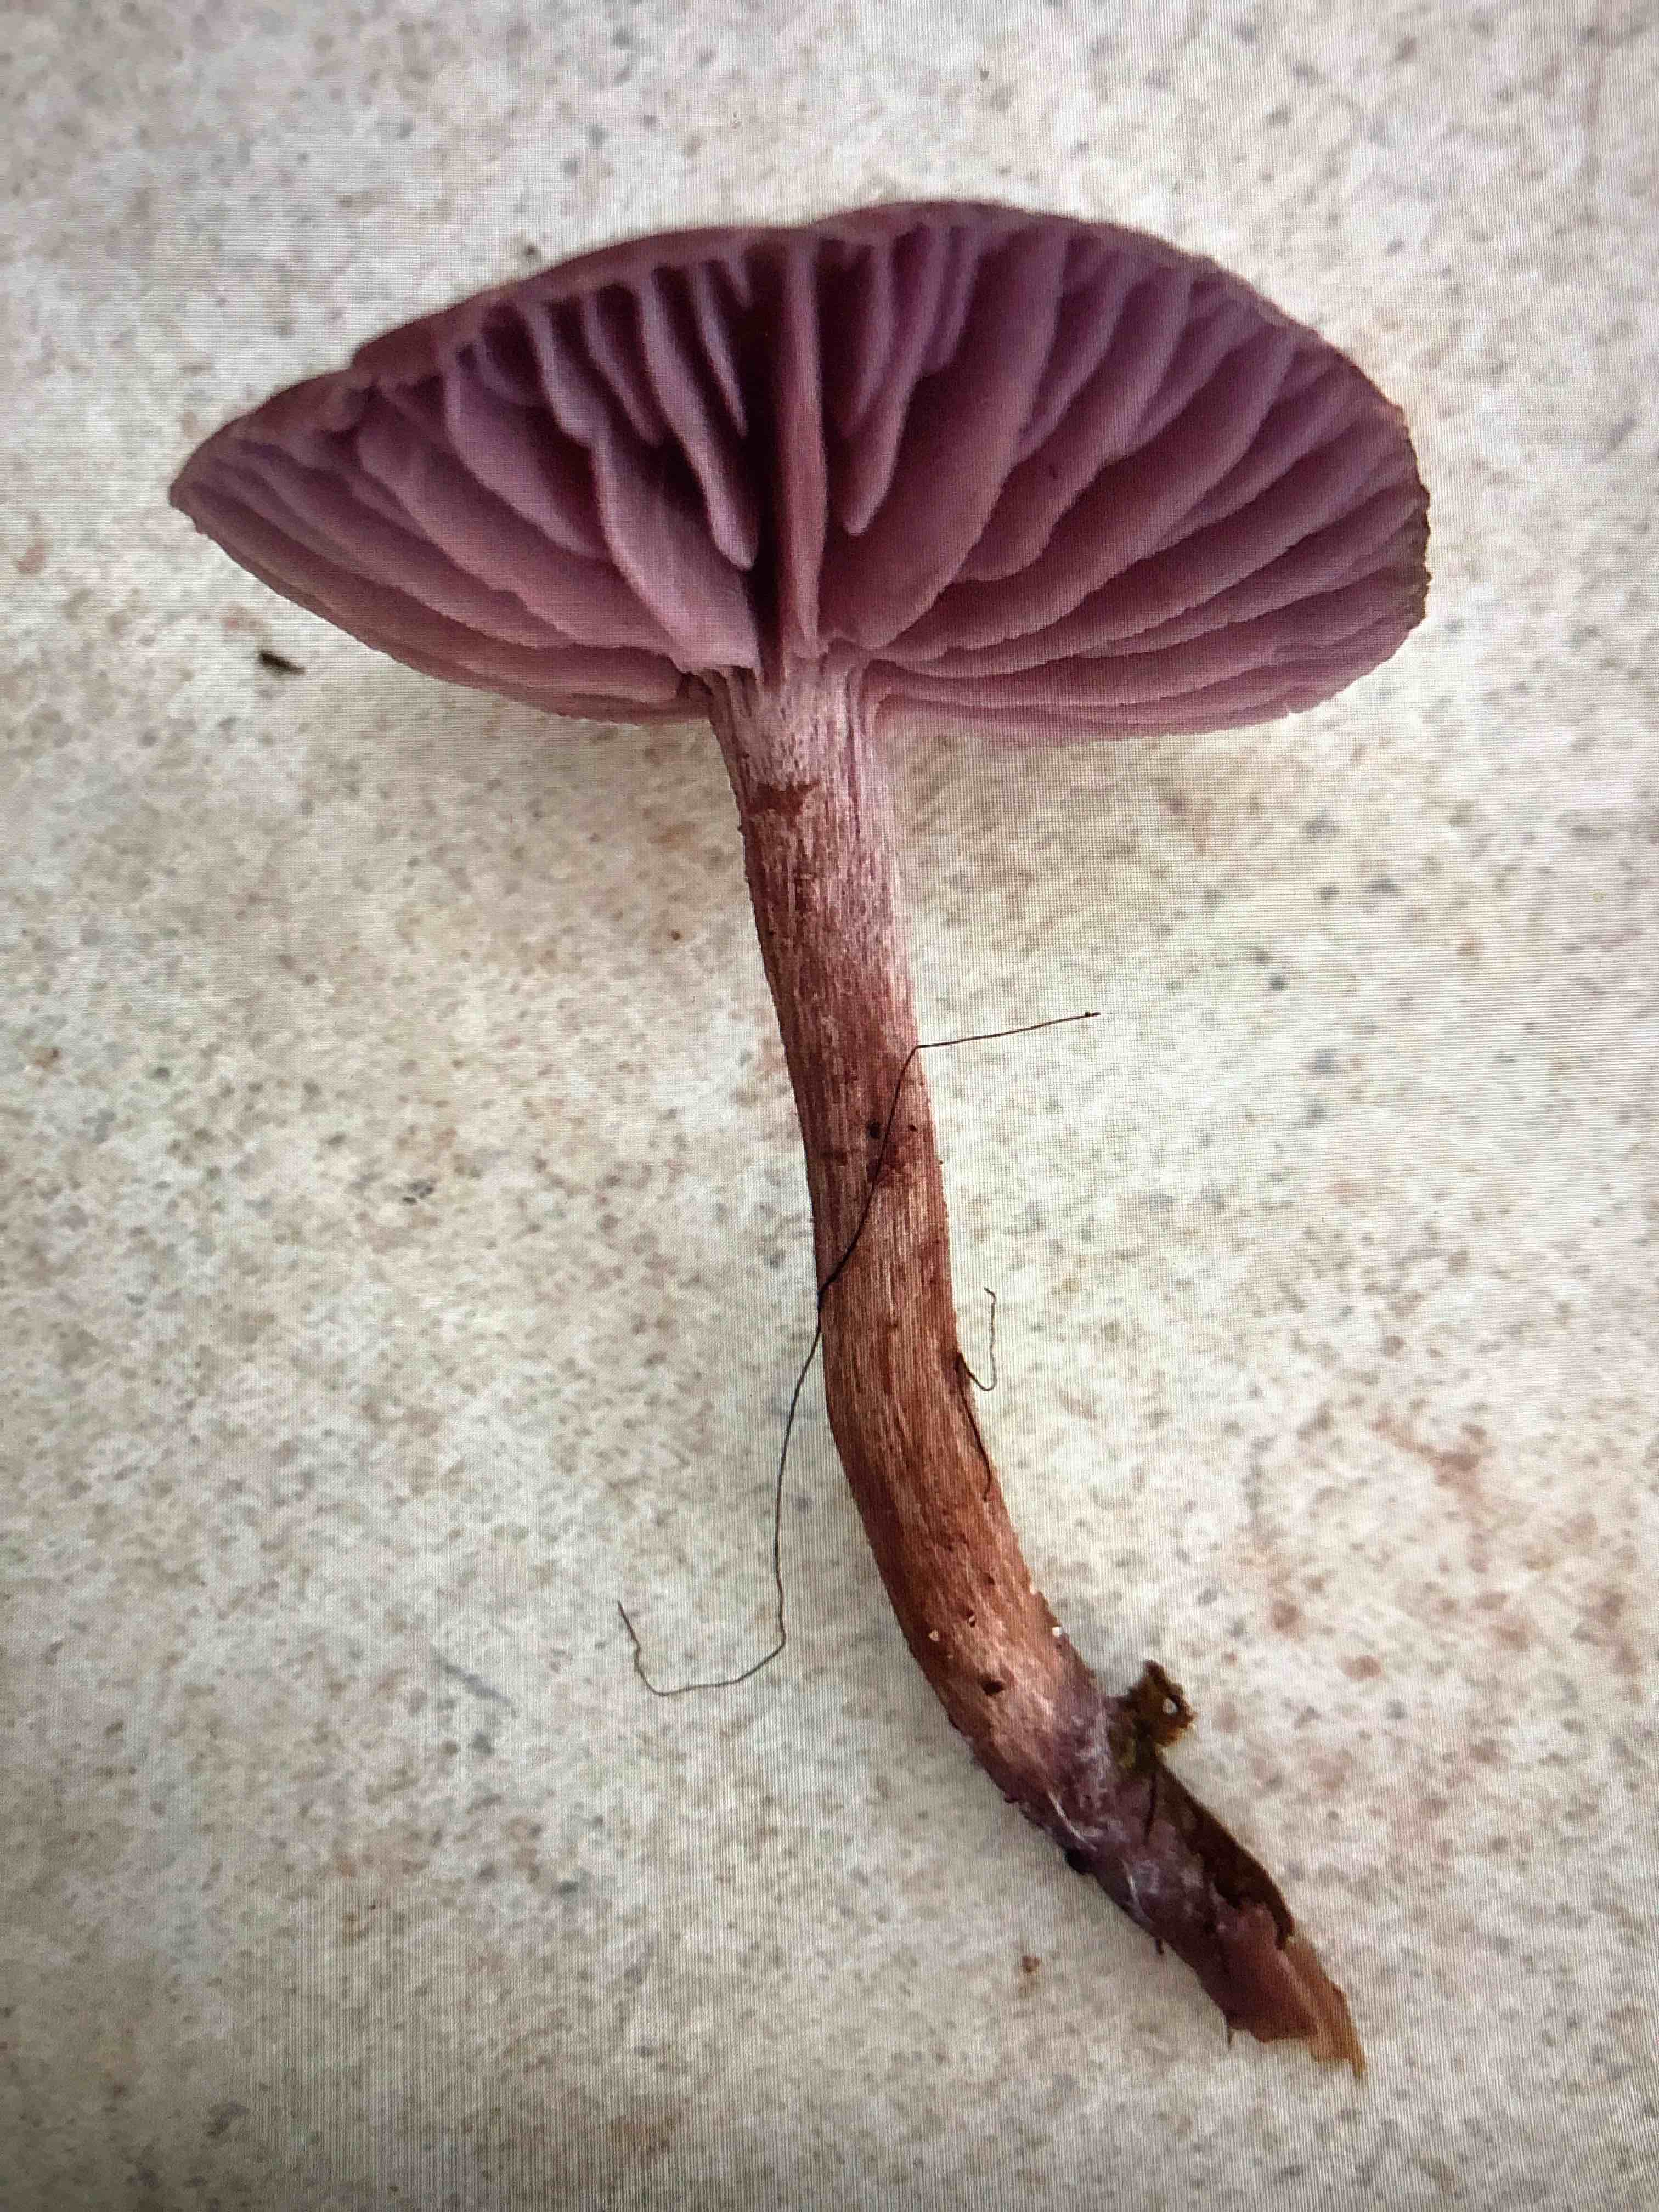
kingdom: Fungi
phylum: Basidiomycota
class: Agaricomycetes
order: Agaricales
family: Hydnangiaceae
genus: Laccaria
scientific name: Laccaria amethystina
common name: violet ametysthat
